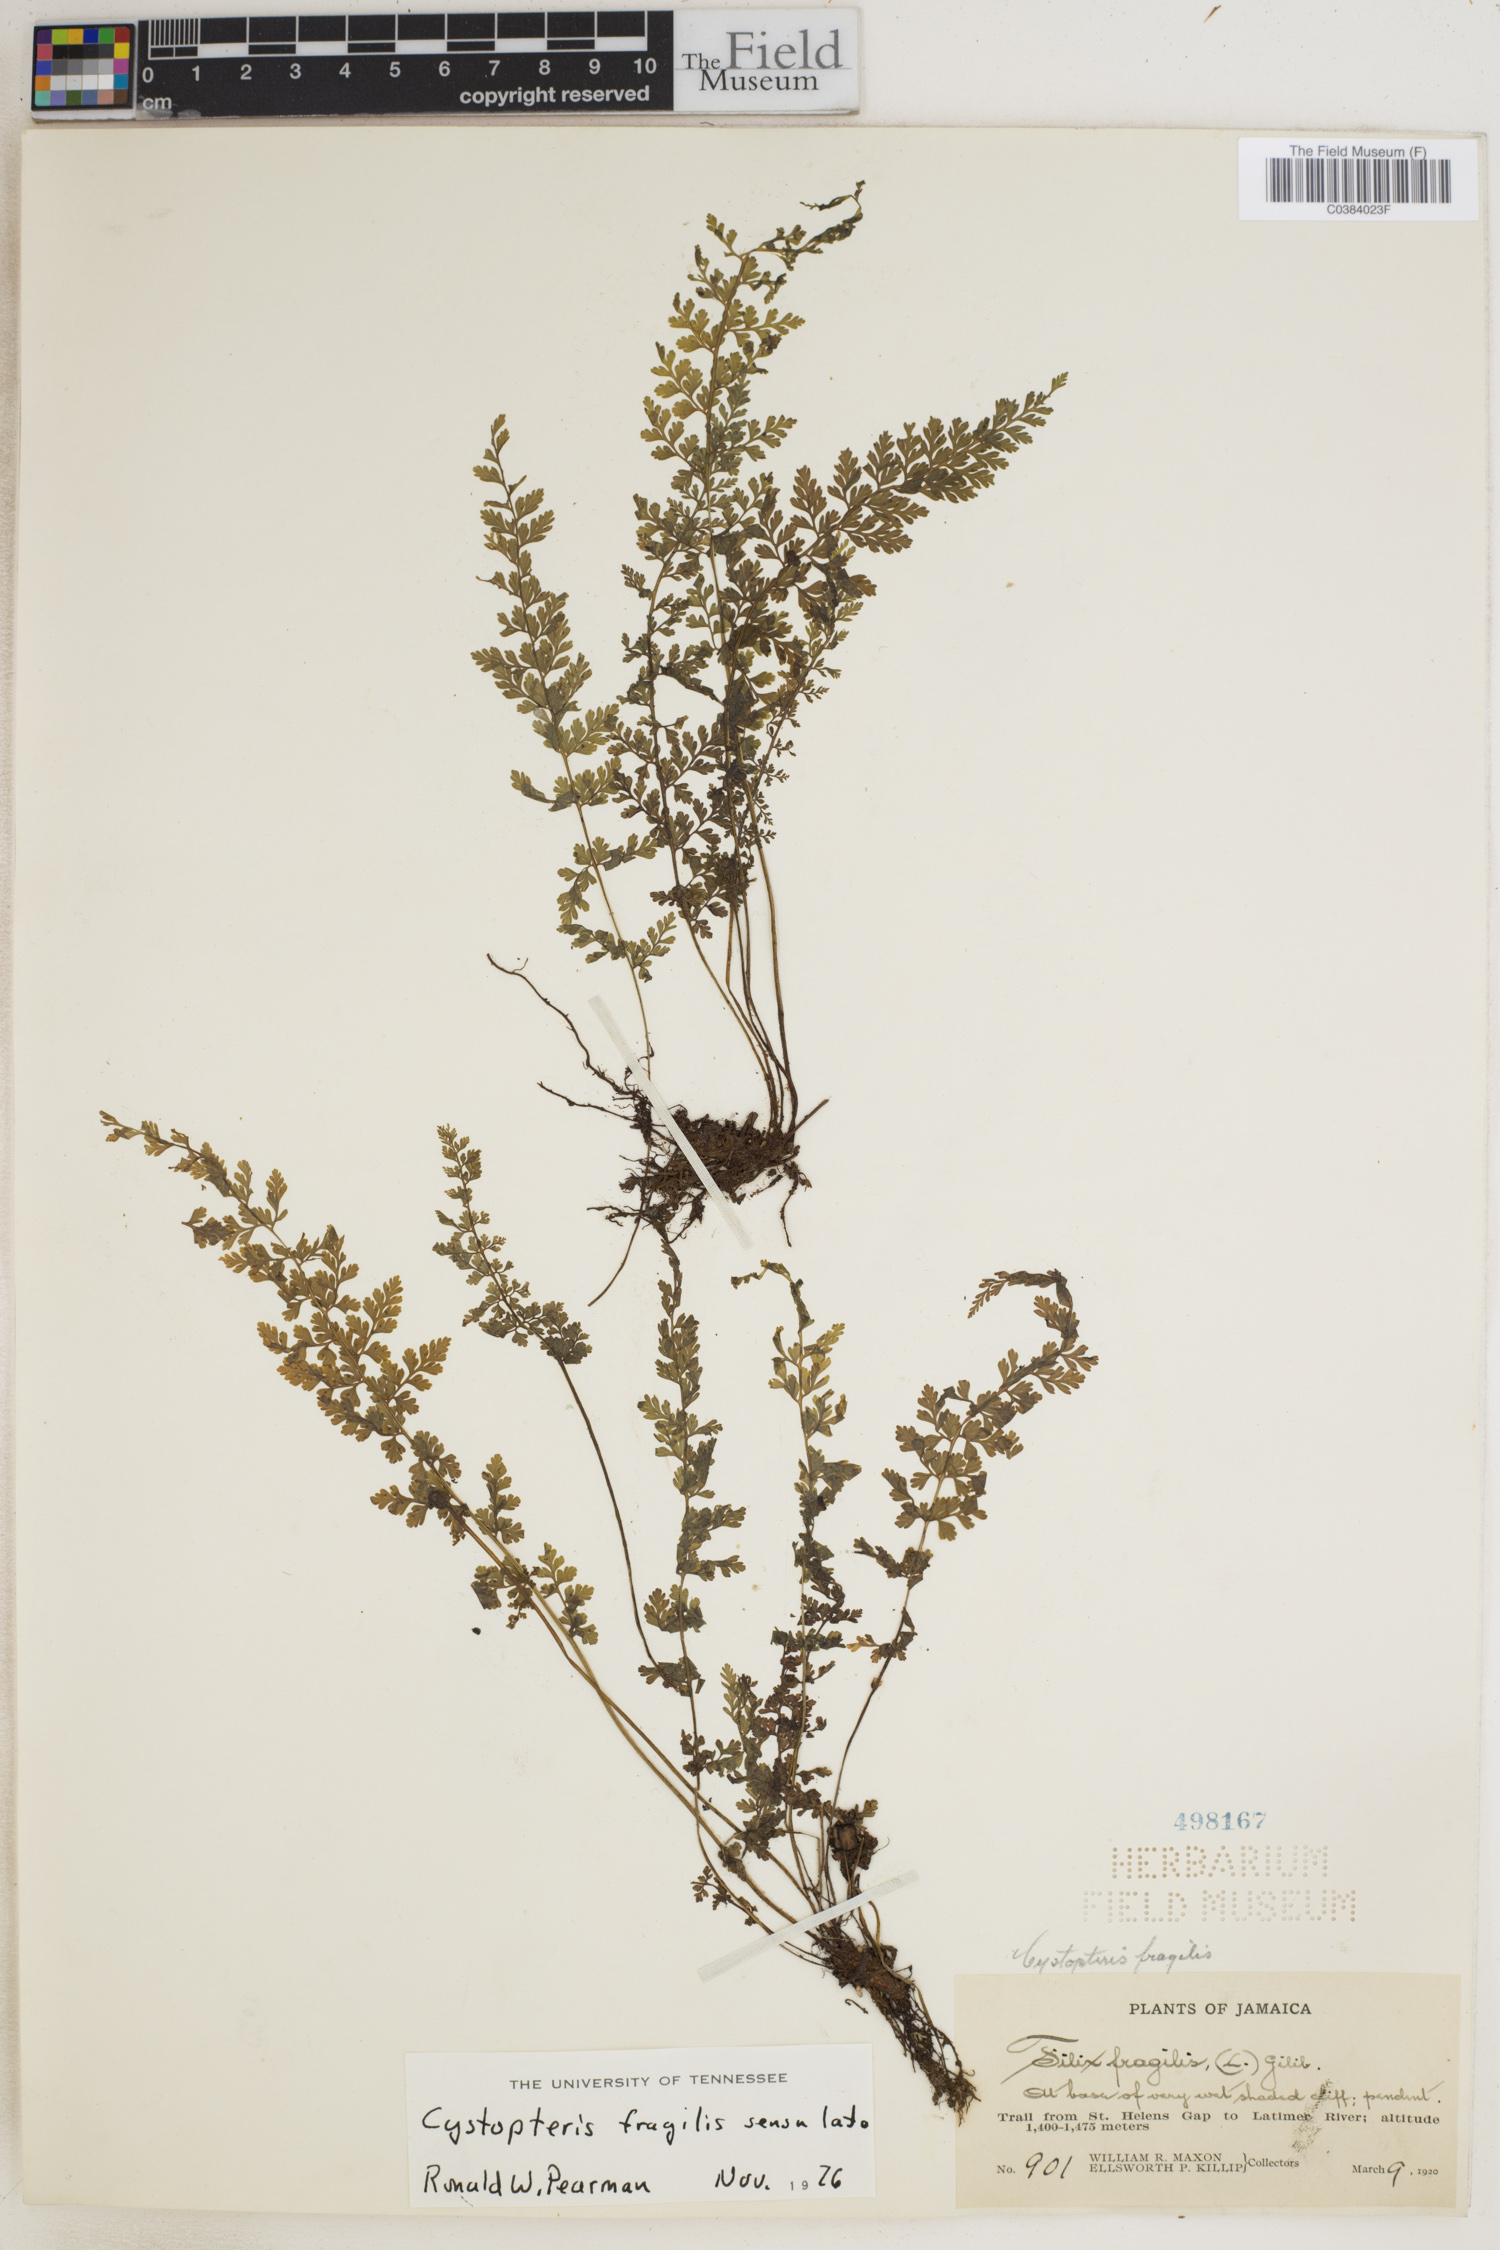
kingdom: Plantae
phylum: Tracheophyta
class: Polypodiopsida
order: Polypodiales
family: Cystopteridaceae
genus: Cystopteris
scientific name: Cystopteris fragilis
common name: Brittle bladder fern
